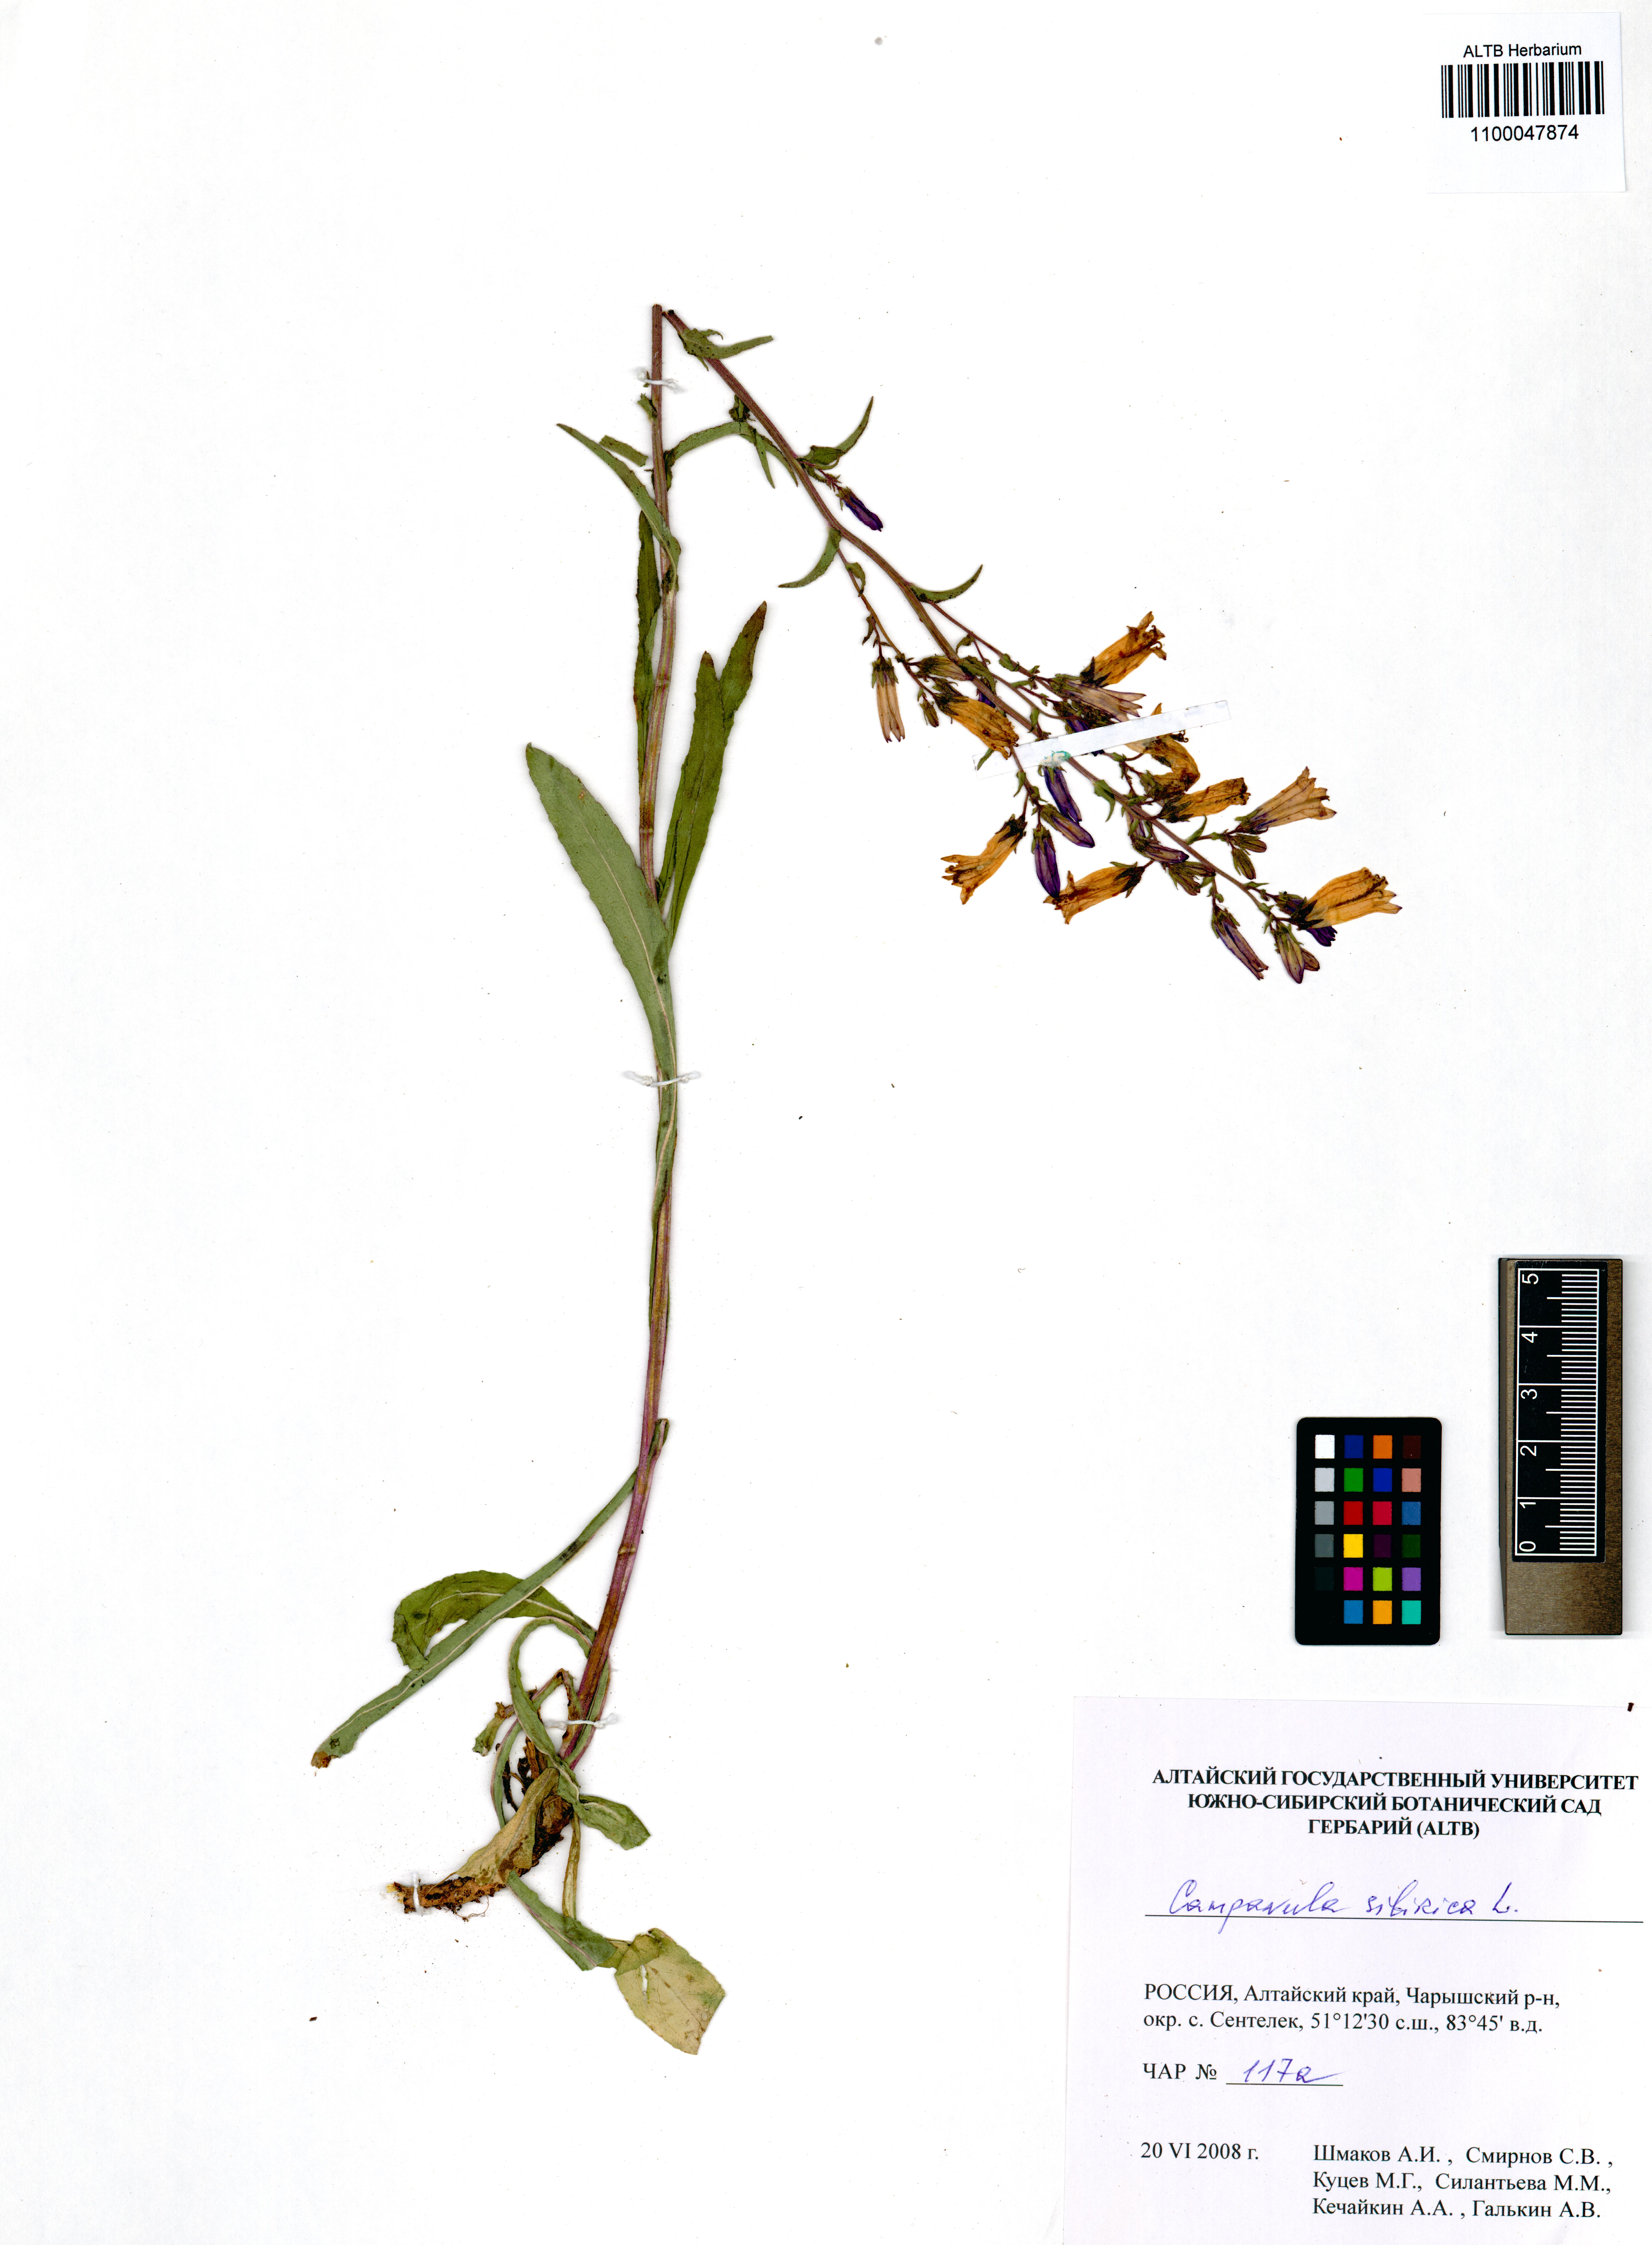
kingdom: Plantae
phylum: Tracheophyta
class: Magnoliopsida
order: Asterales
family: Campanulaceae
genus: Campanula
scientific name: Campanula sibirica
